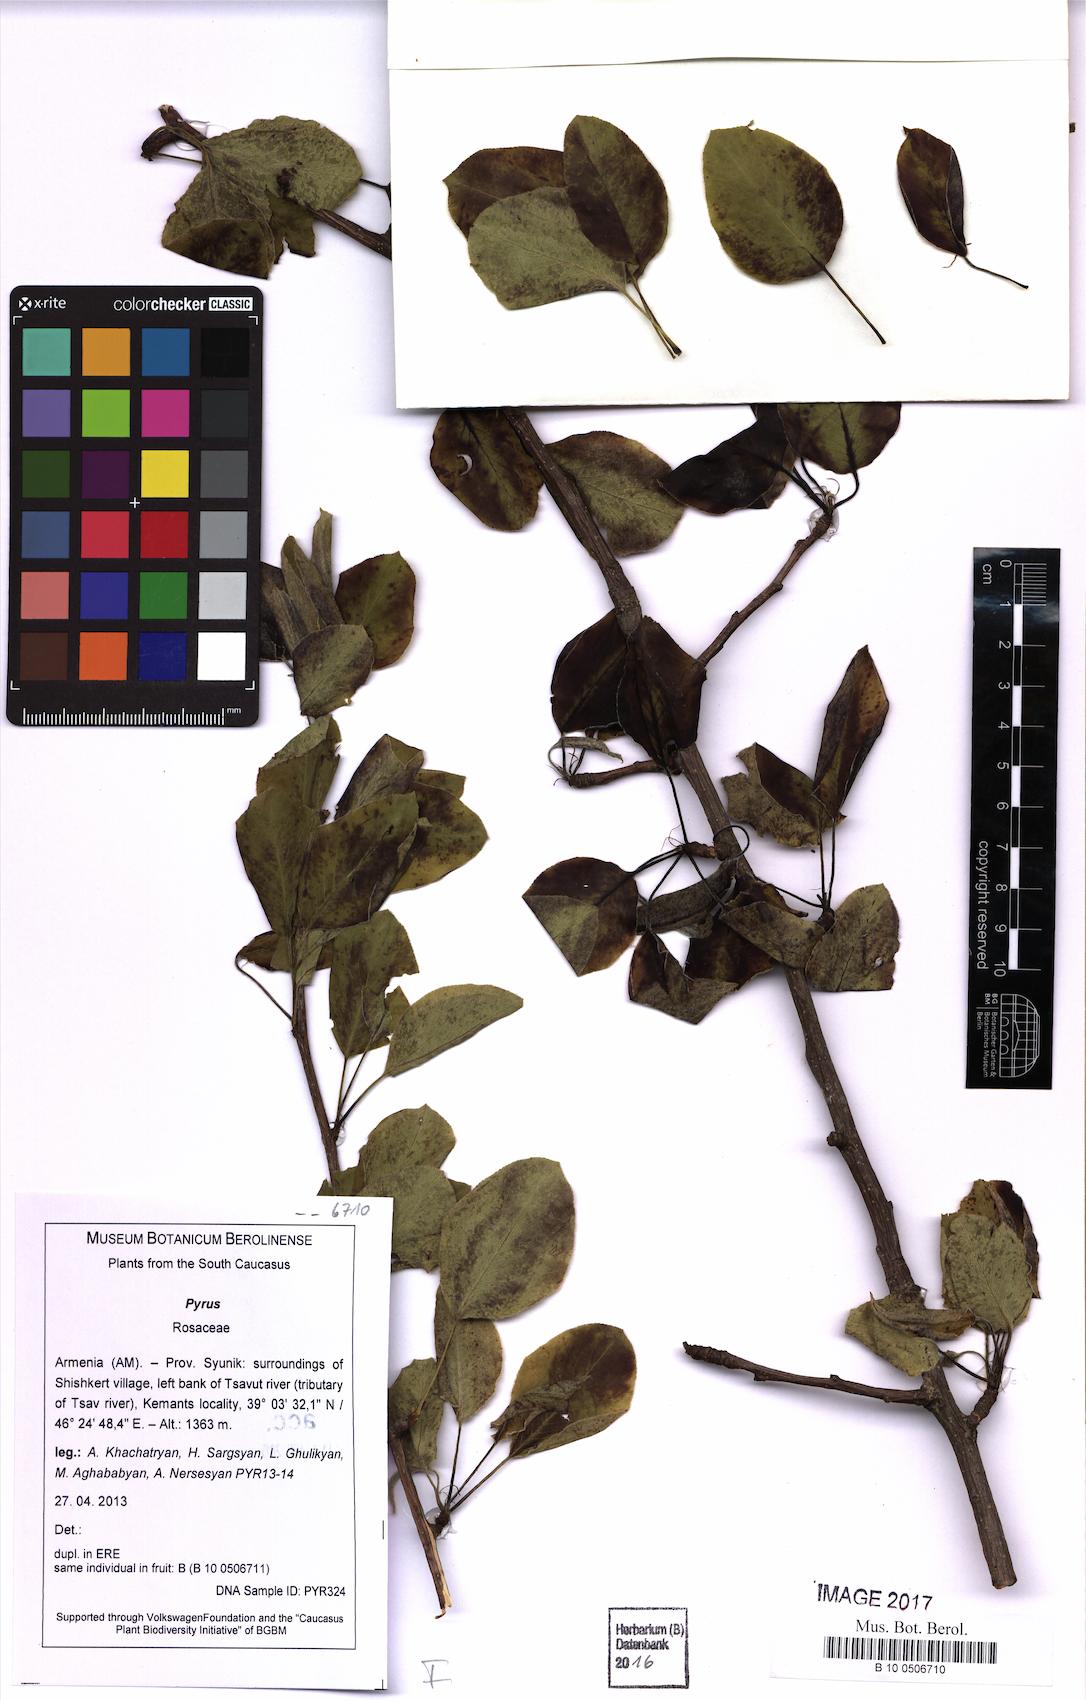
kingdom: Plantae
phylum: Tracheophyta
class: Magnoliopsida
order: Rosales
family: Rosaceae
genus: Pyrus
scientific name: Pyrus
